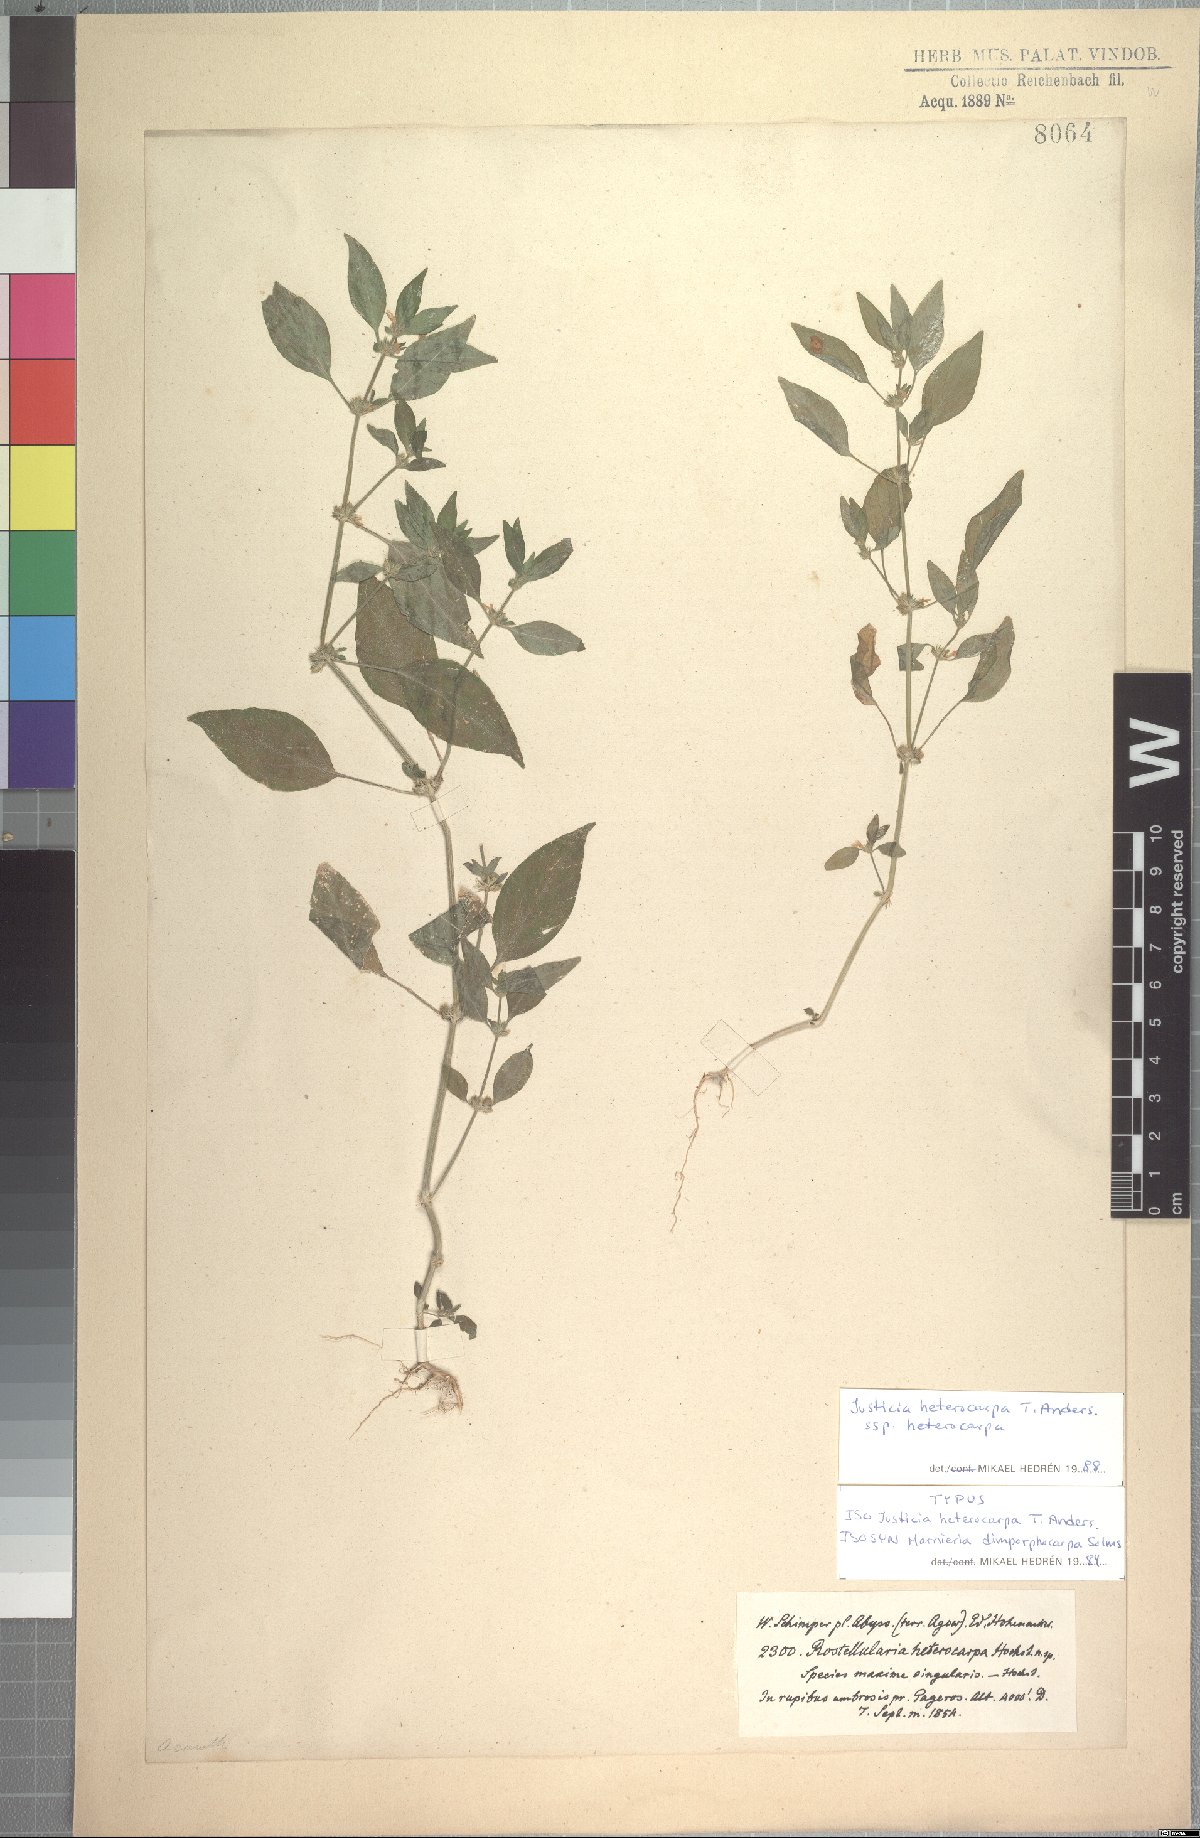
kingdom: Plantae
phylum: Tracheophyta
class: Magnoliopsida
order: Lamiales
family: Acanthaceae
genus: Justicia
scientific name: Justicia heterocarpa
